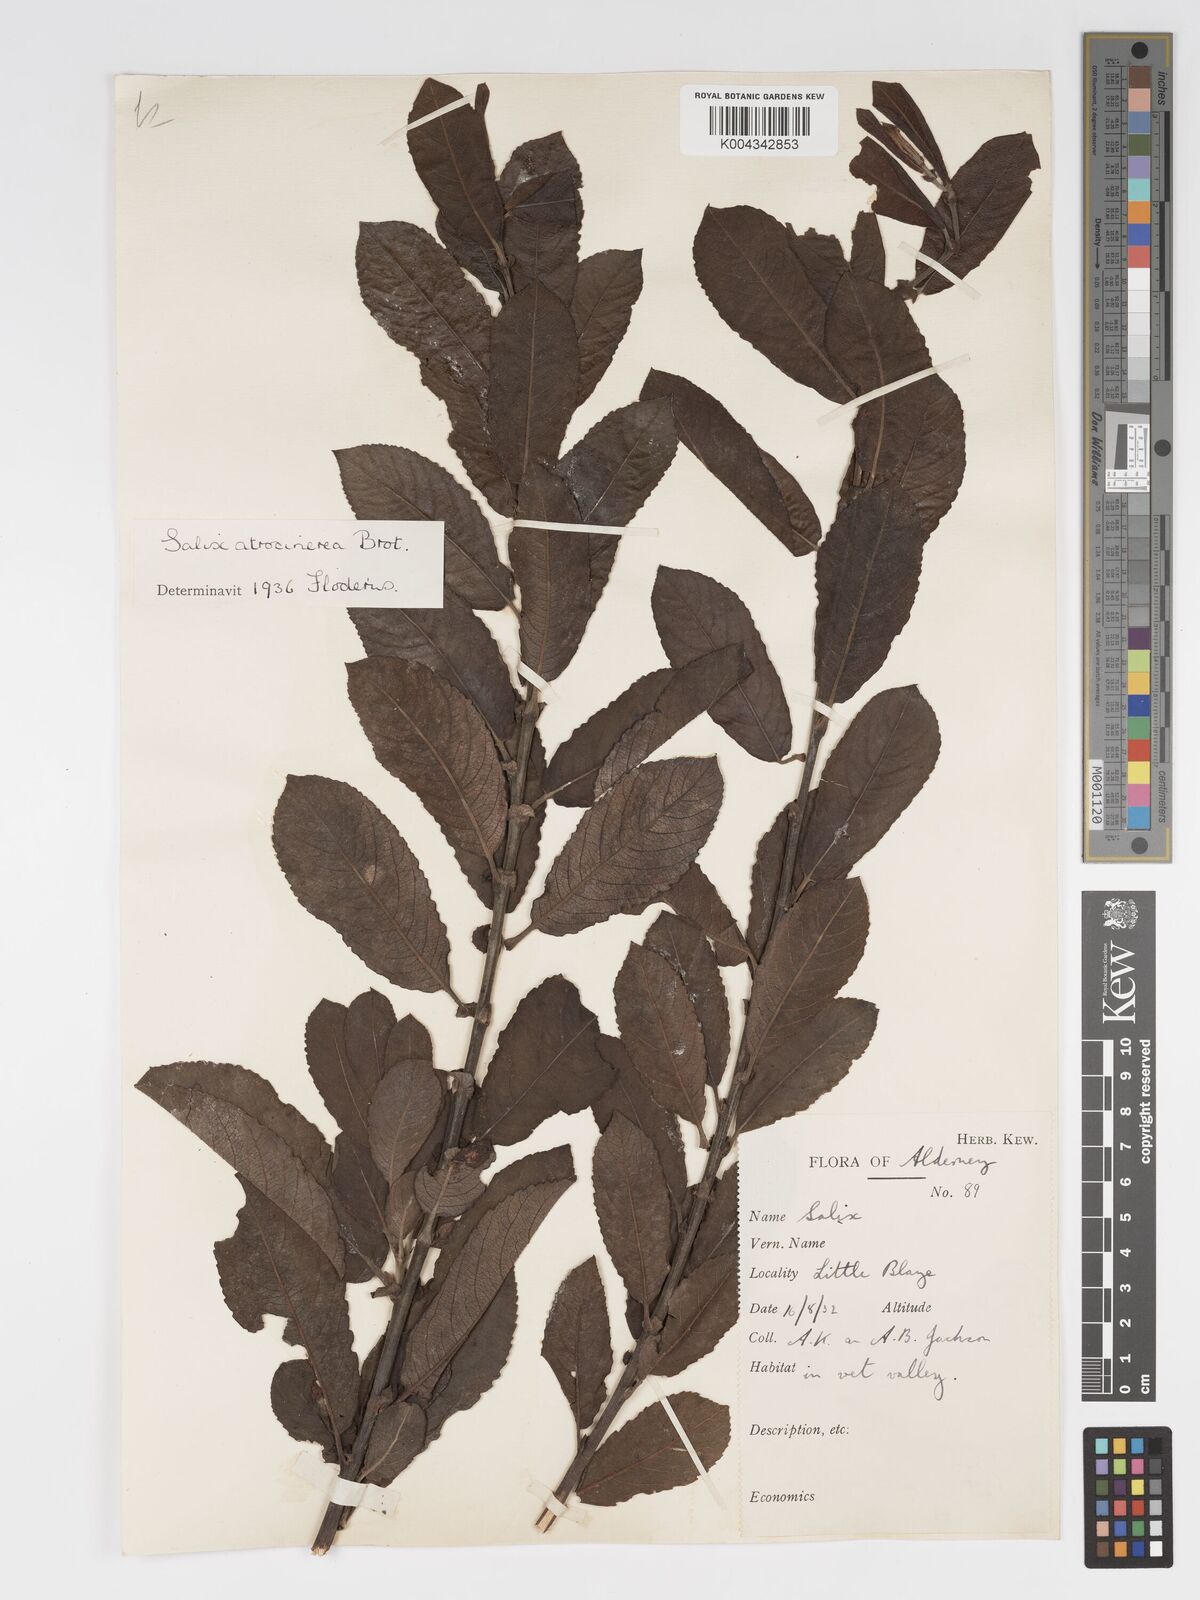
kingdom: Plantae
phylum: Tracheophyta
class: Magnoliopsida
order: Malpighiales
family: Salicaceae
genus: Salix
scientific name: Salix atrocinerea
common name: Rusty willow
